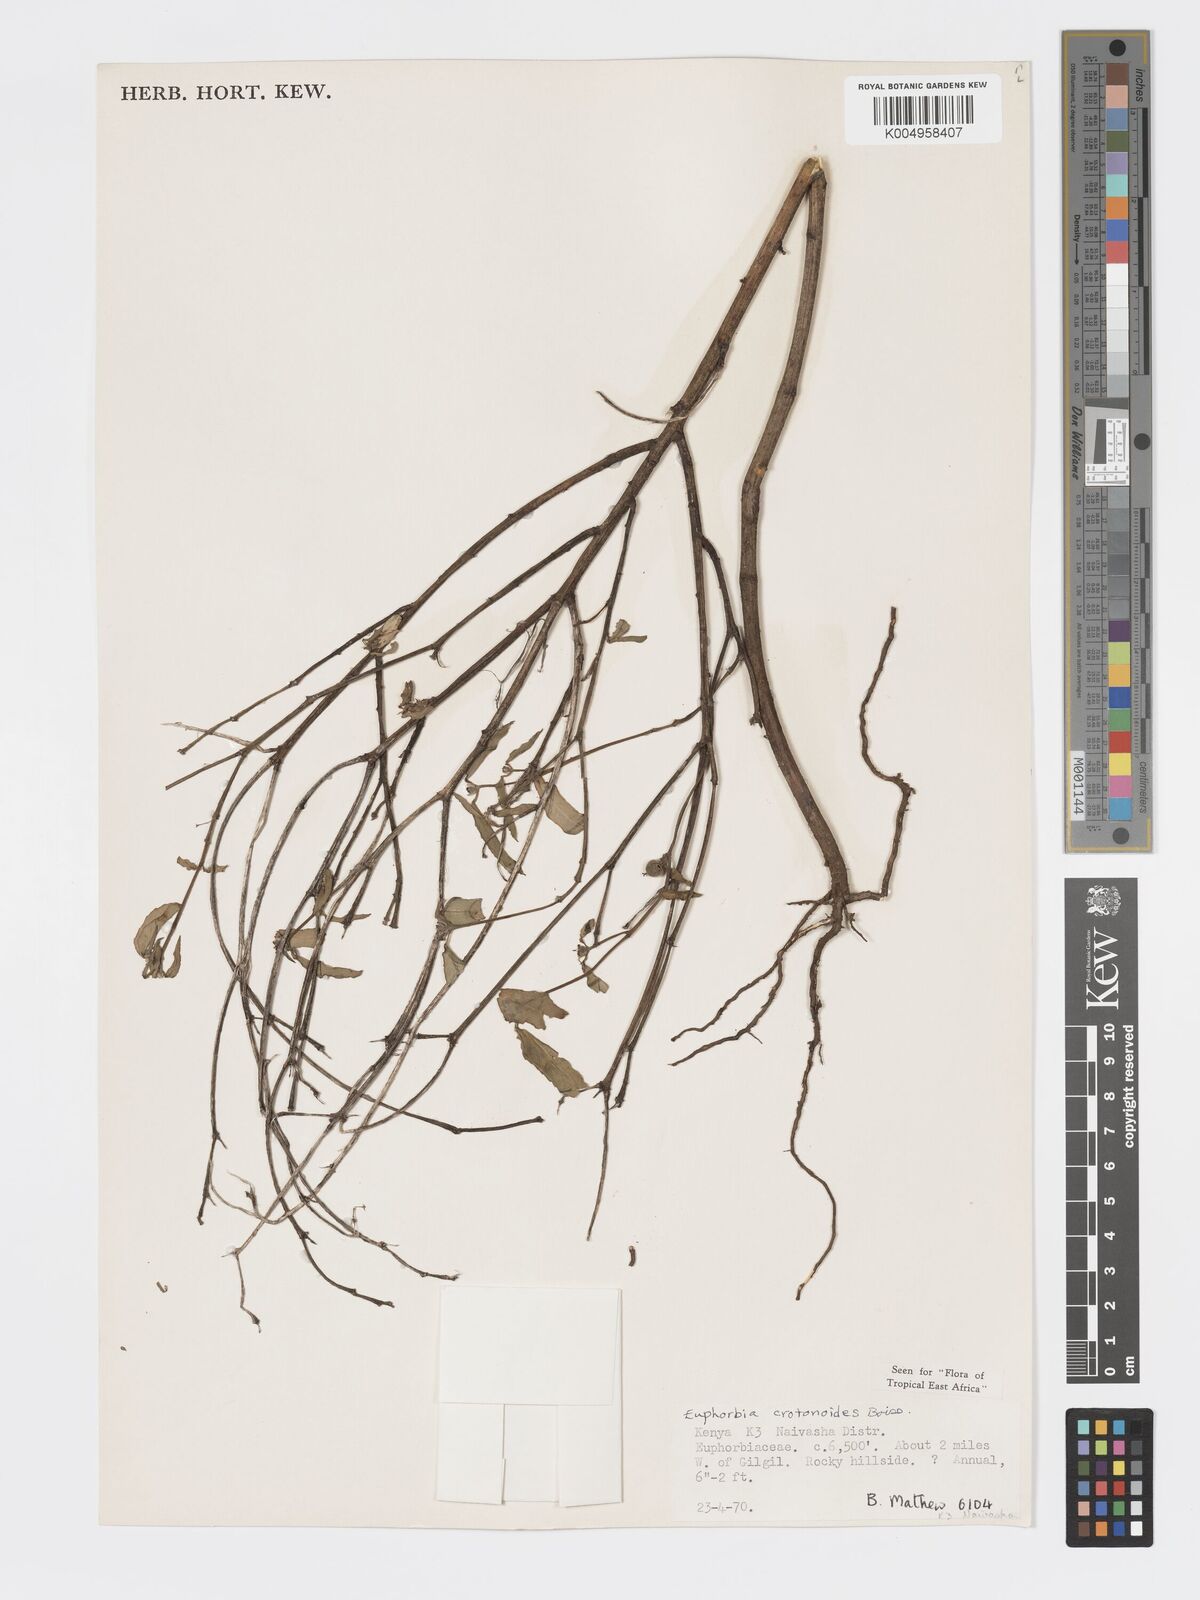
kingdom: Plantae
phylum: Tracheophyta
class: Magnoliopsida
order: Malpighiales
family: Euphorbiaceae
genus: Euphorbia
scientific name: Euphorbia crotonoides
